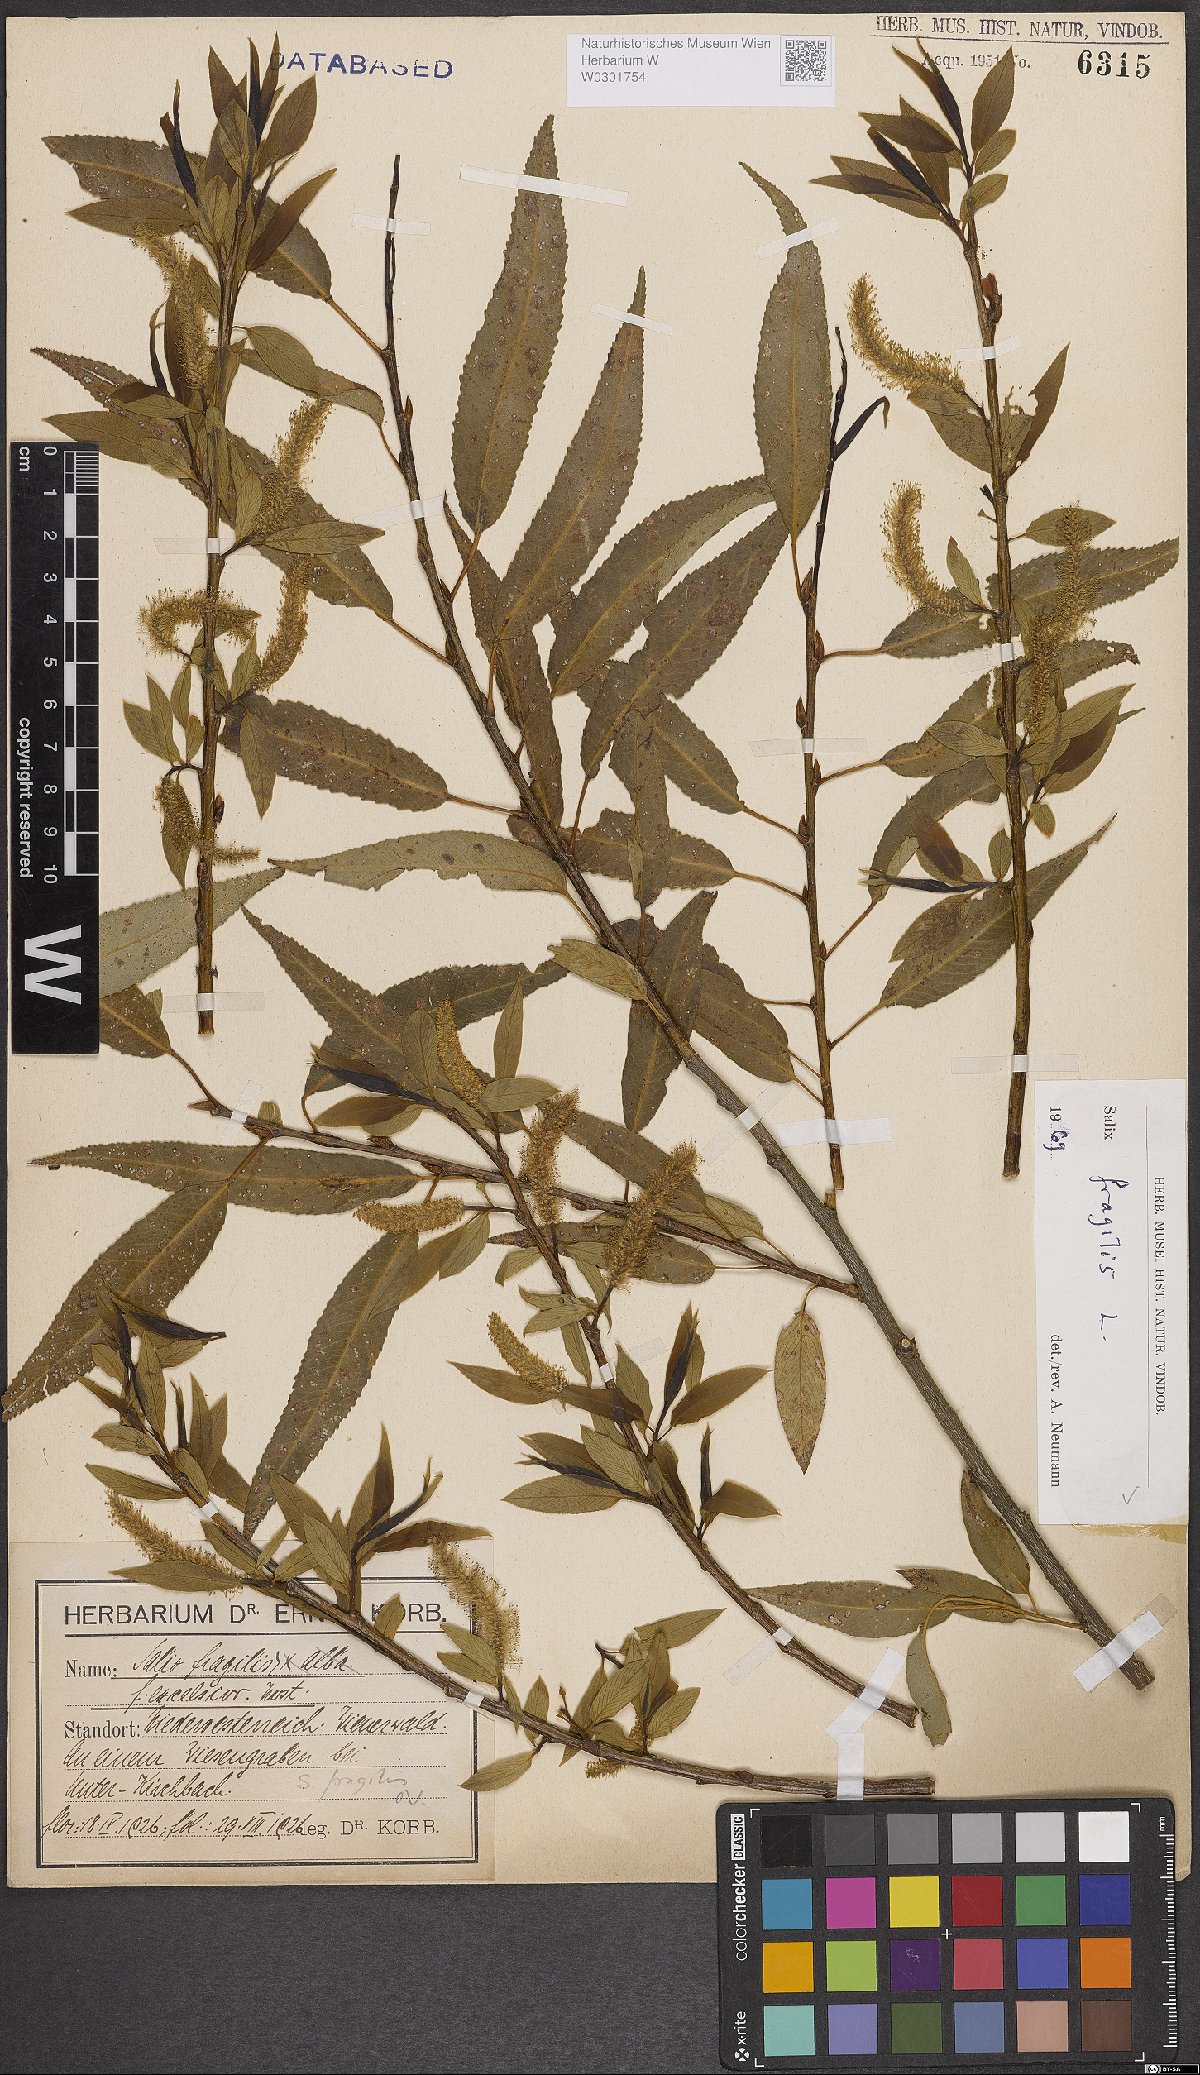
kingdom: Plantae
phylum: Tracheophyta
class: Magnoliopsida
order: Malpighiales
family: Salicaceae
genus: Salix
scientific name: Salix fragilis
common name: Crack willow
